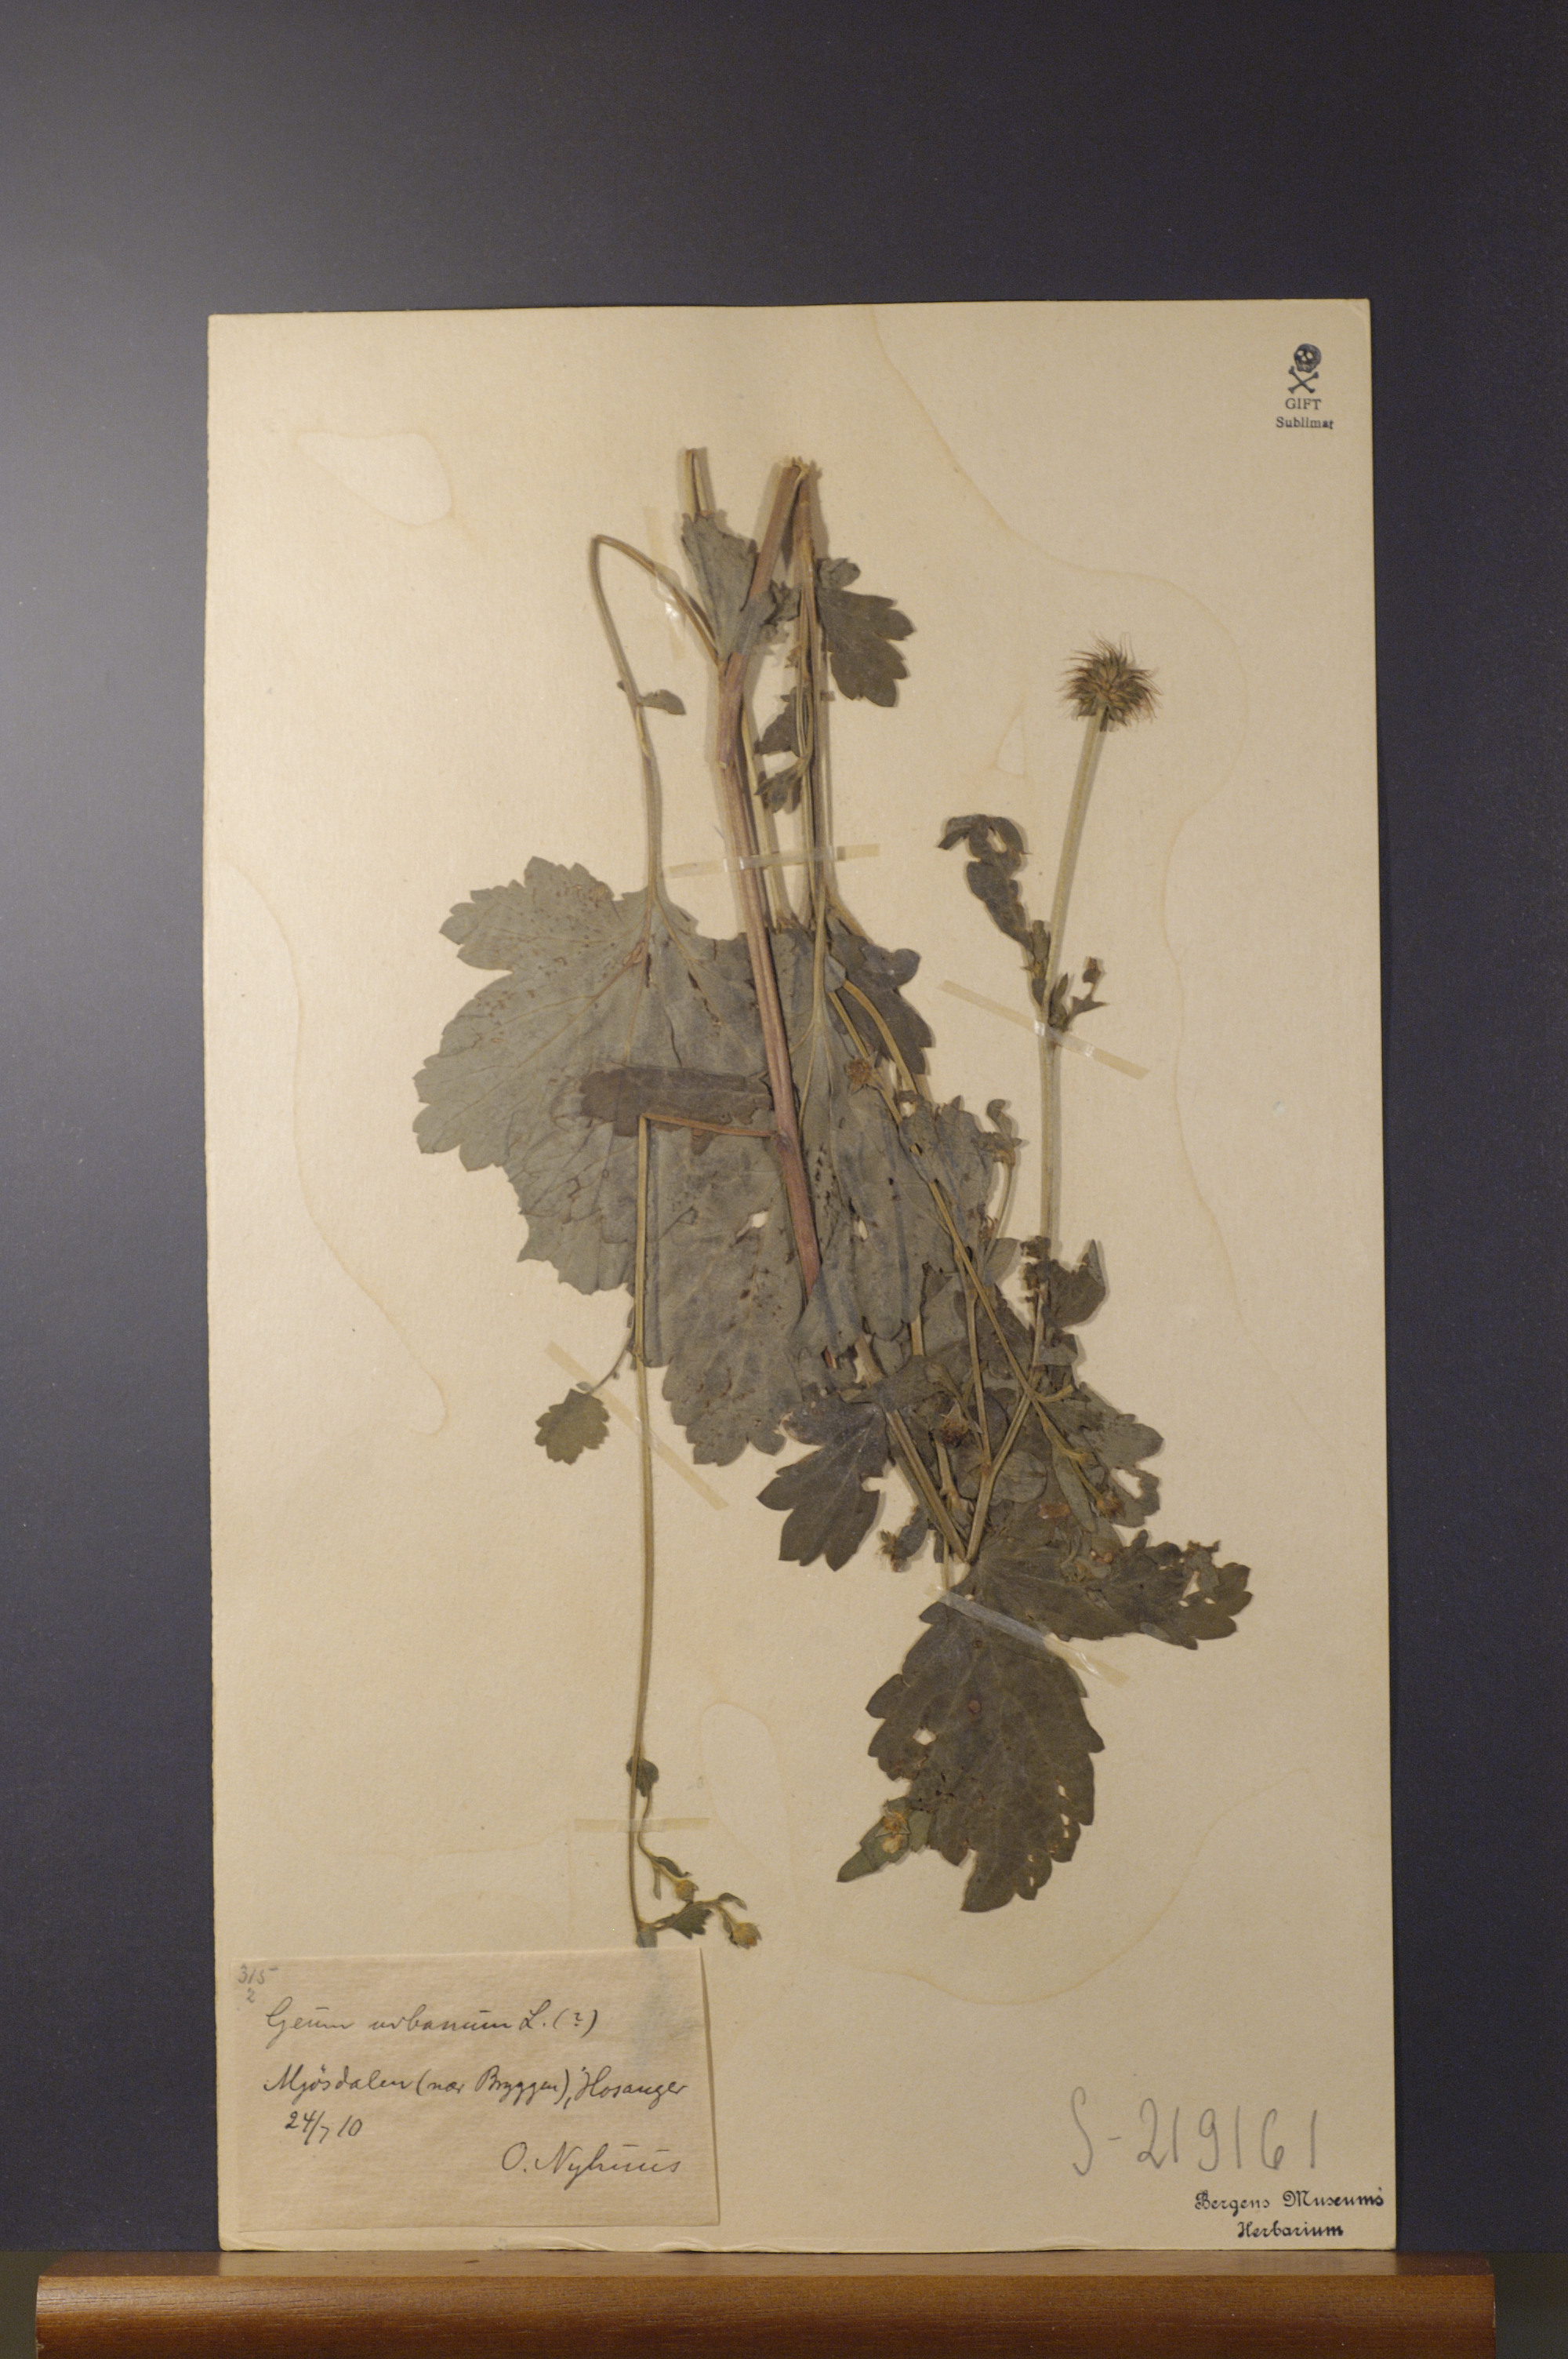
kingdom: Plantae
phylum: Tracheophyta
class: Magnoliopsida
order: Rosales
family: Rosaceae
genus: Geum
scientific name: Geum urbanum
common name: Wood avens
